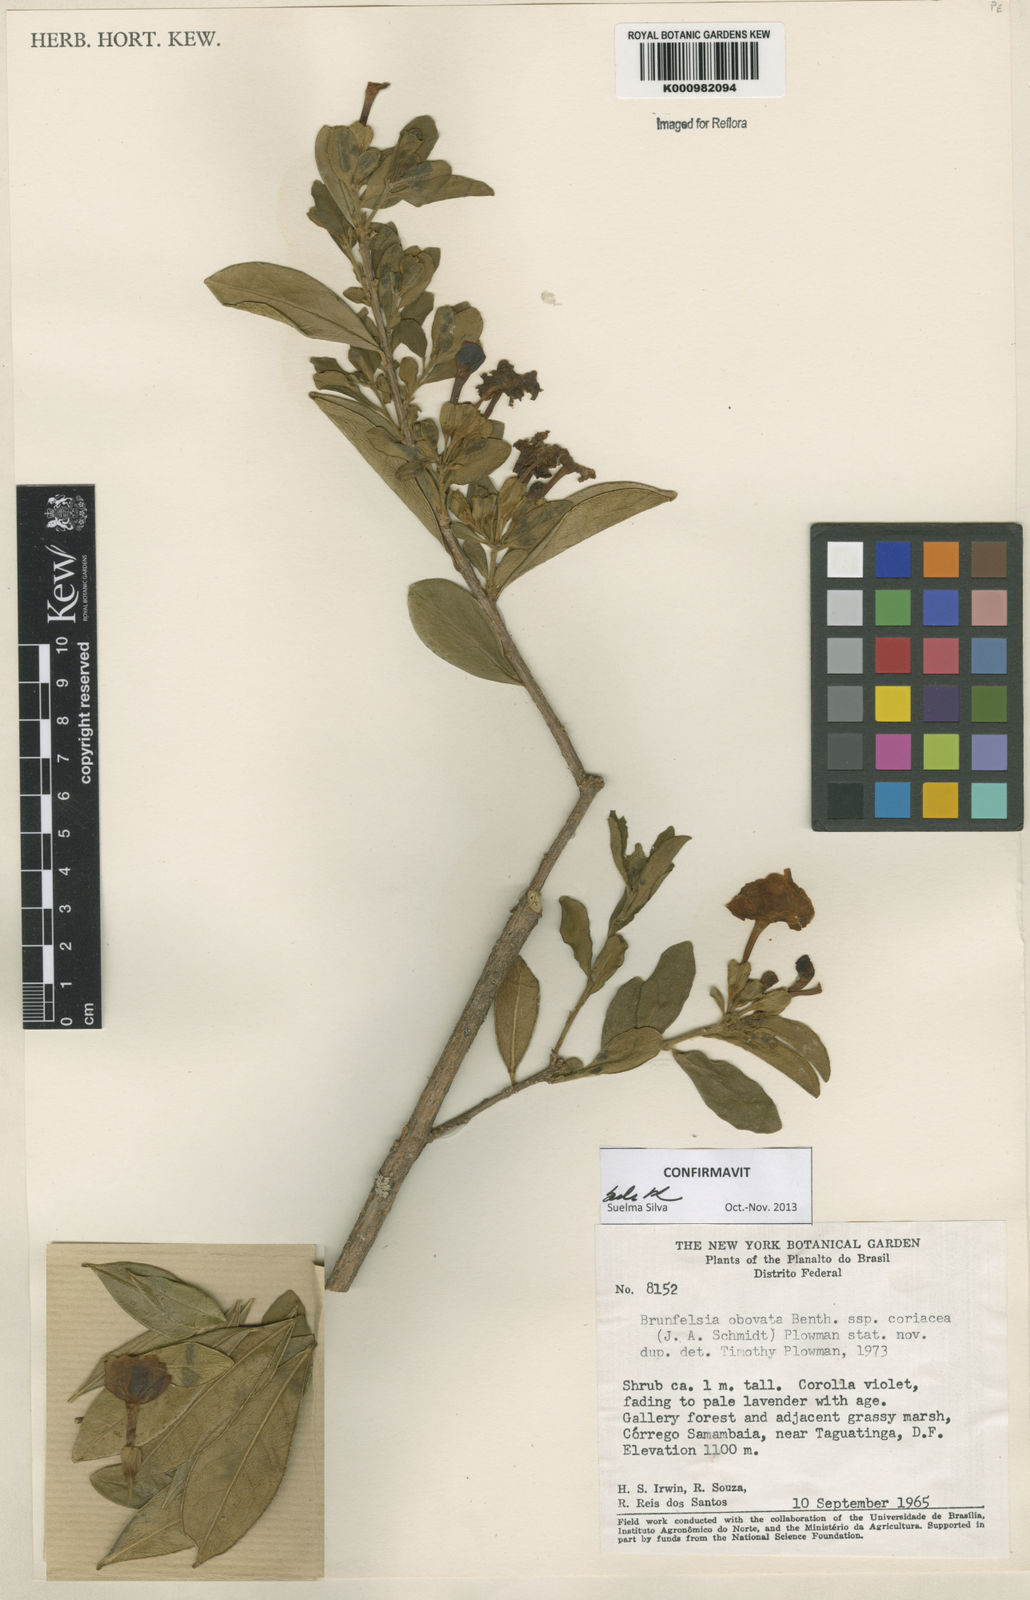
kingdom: Plantae
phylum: Tracheophyta
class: Magnoliopsida
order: Solanales
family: Solanaceae
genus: Brunfelsia
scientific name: Brunfelsia obovata
